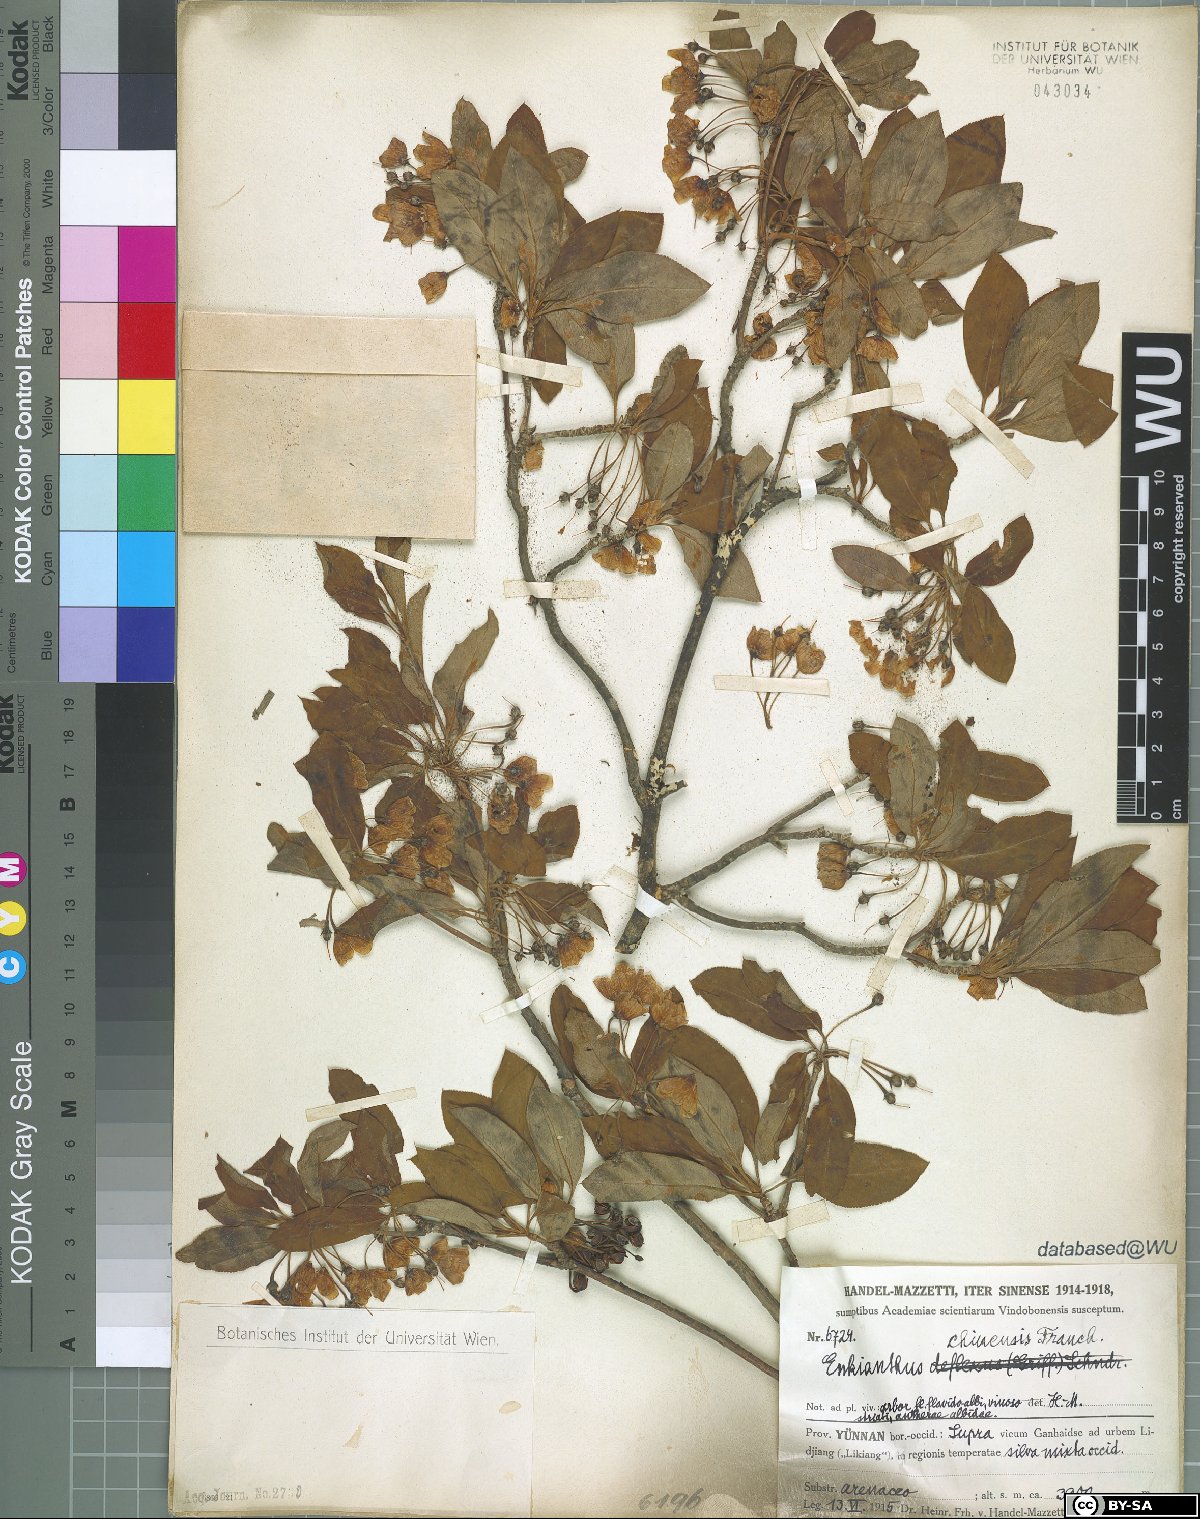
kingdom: Plantae
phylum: Tracheophyta
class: Magnoliopsida
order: Ericales
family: Ericaceae
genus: Enkianthus
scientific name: Enkianthus chinensis
